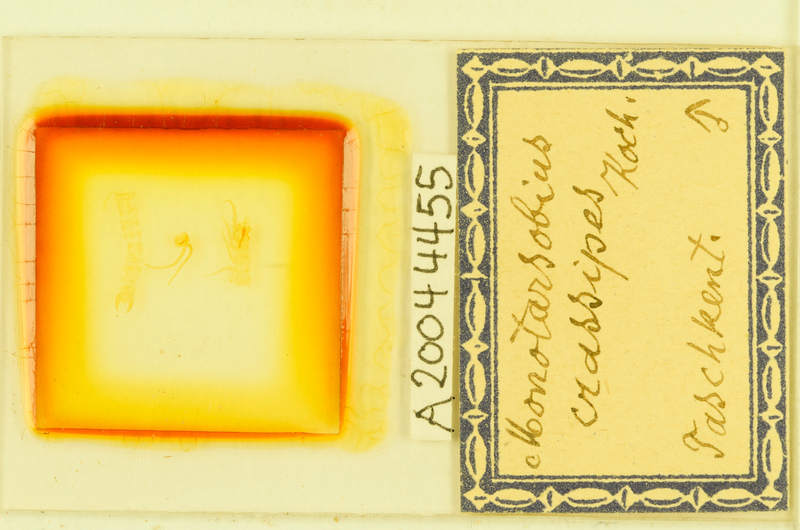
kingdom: Animalia
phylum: Arthropoda
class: Chilopoda
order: Lithobiomorpha
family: Lithobiidae
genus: Lithobius
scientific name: Lithobius crassipes
